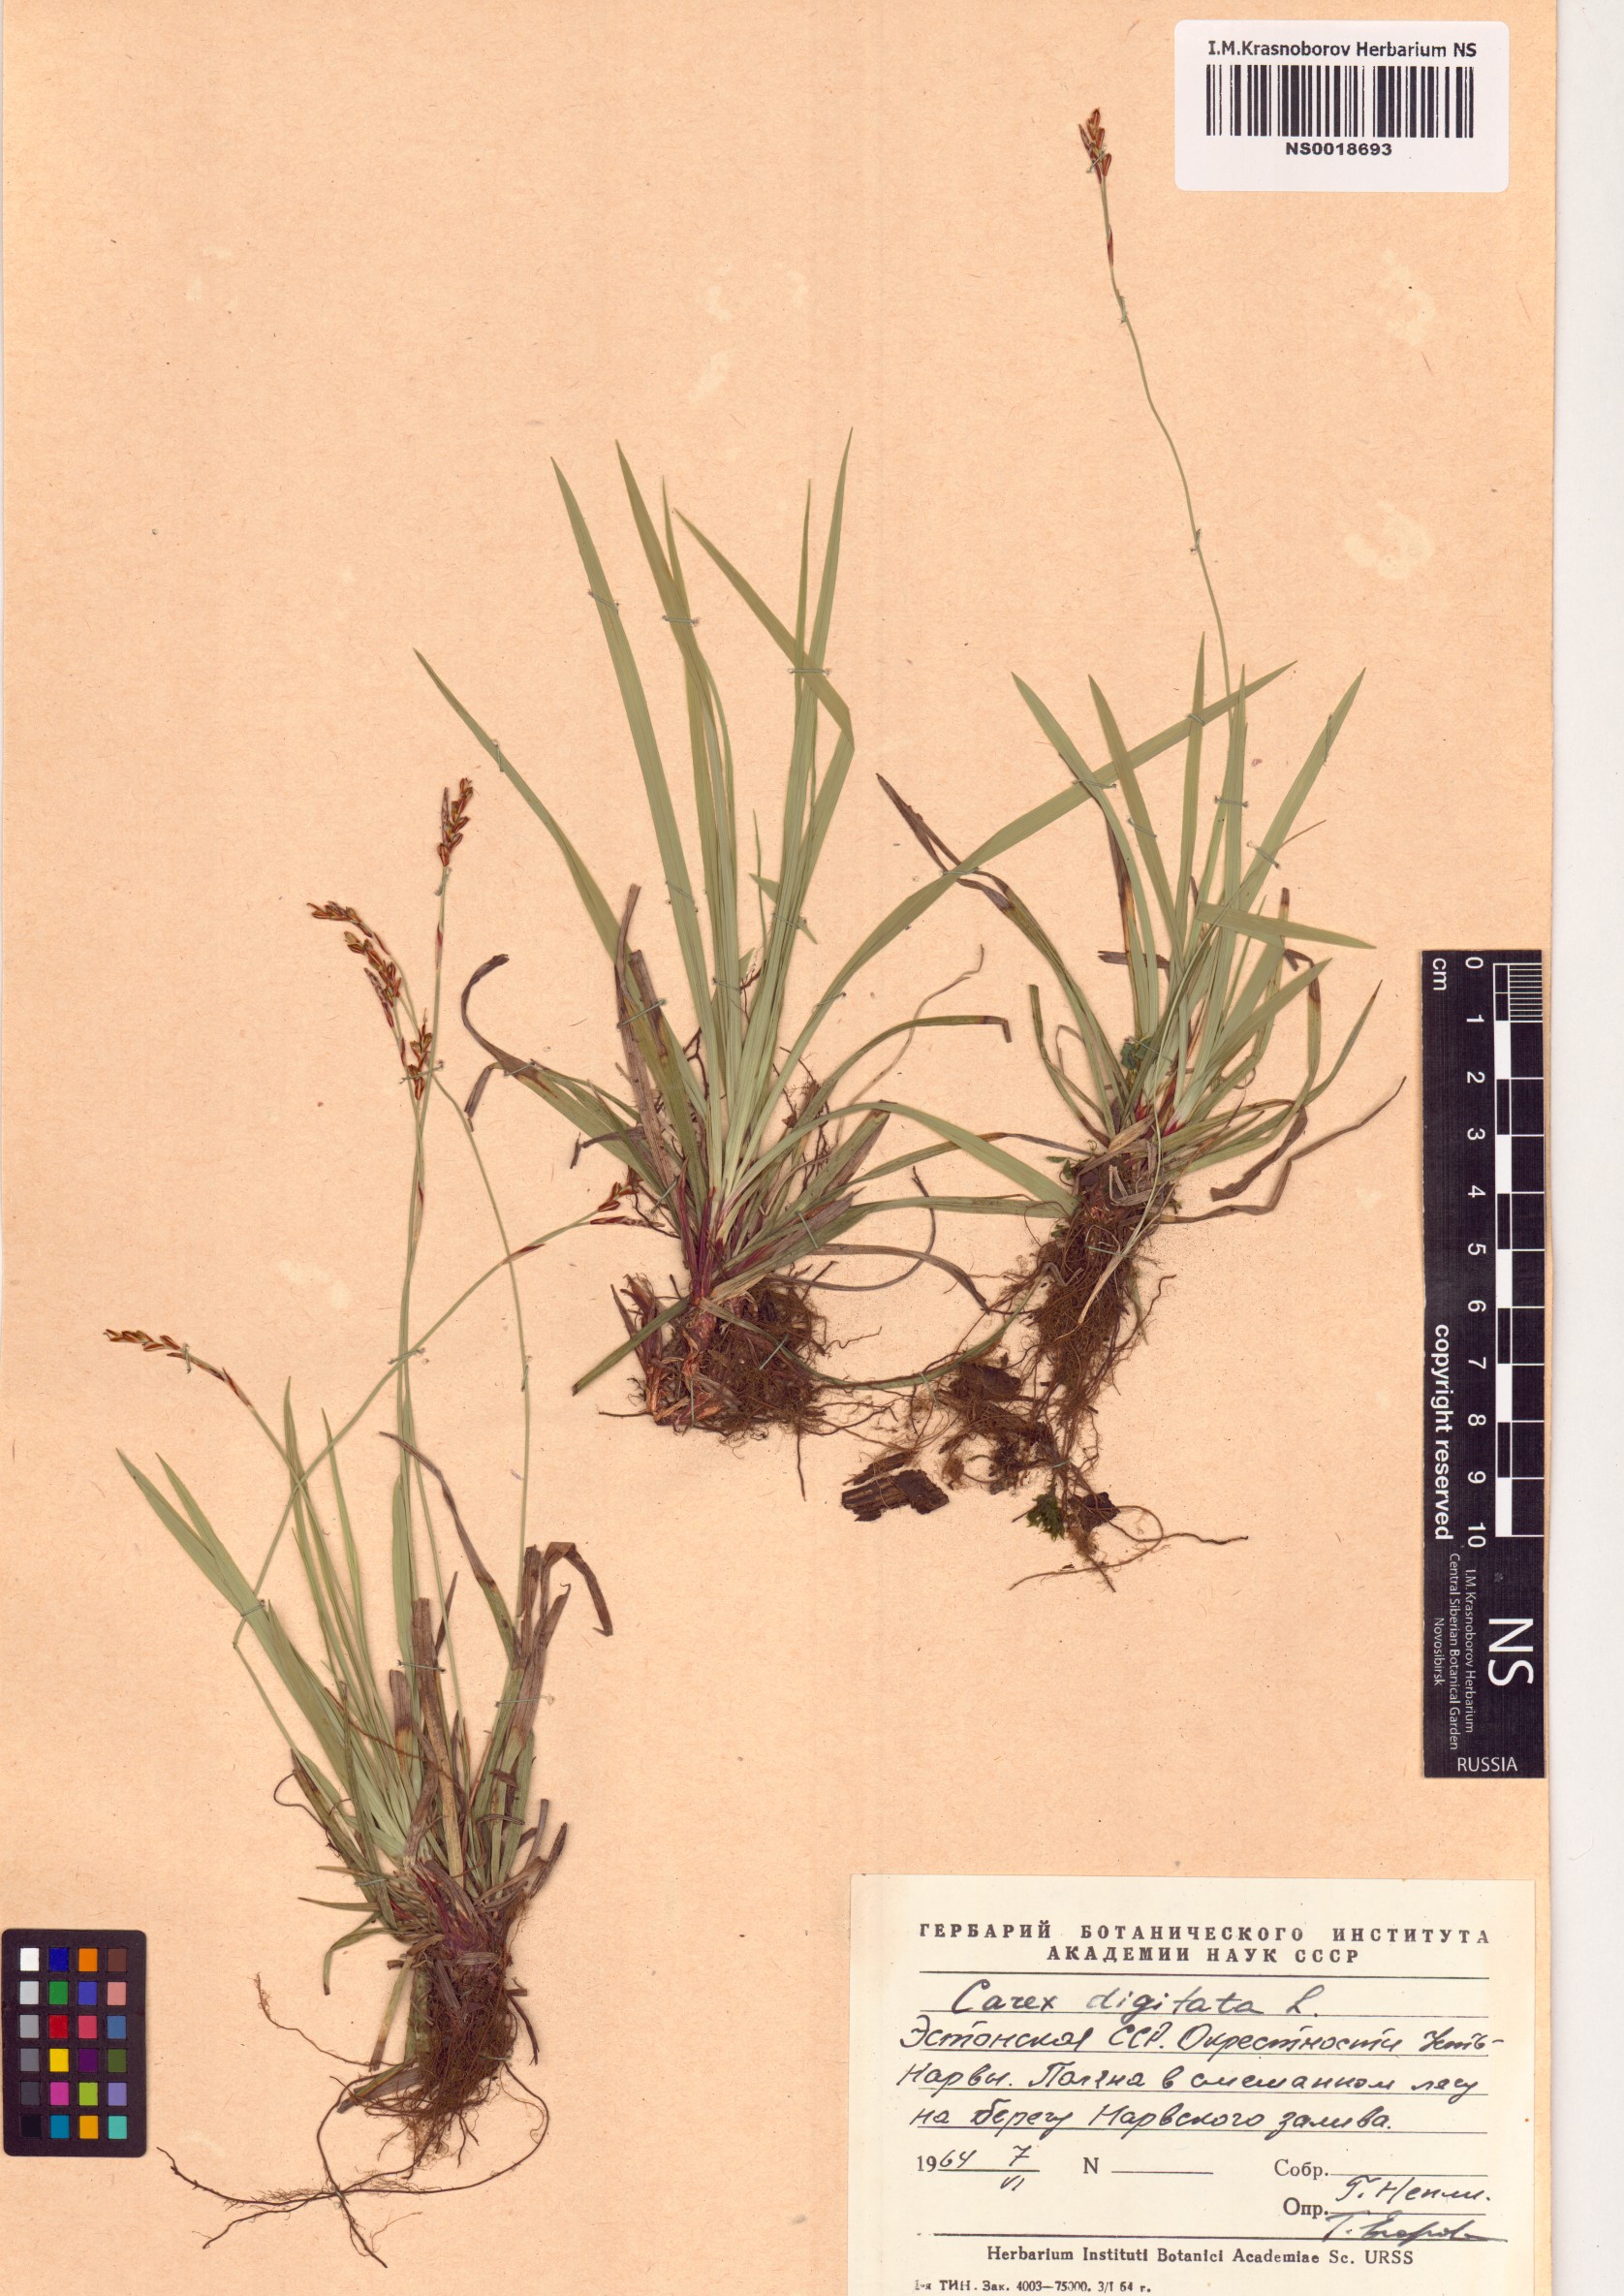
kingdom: Plantae
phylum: Tracheophyta
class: Liliopsida
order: Poales
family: Cyperaceae
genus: Carex
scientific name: Carex digitata
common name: Fingered sedge
